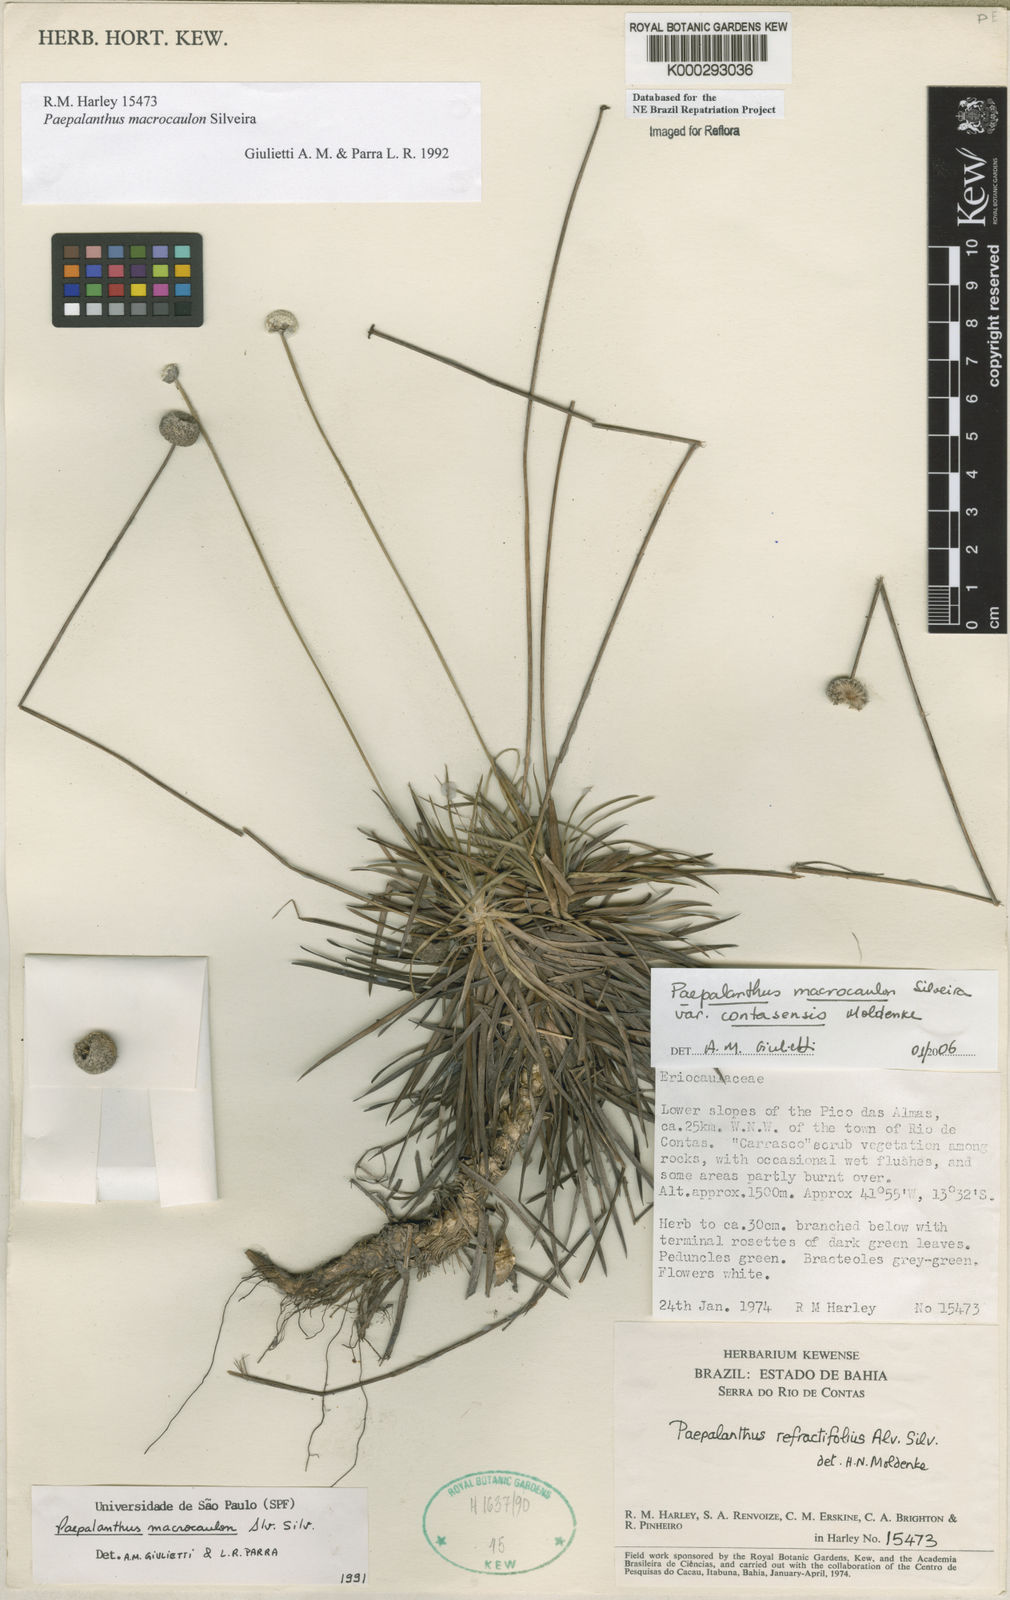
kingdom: Plantae
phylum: Tracheophyta
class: Liliopsida
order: Poales
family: Eriocaulaceae
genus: Paepalanthus
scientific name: Paepalanthus macrocaulon
